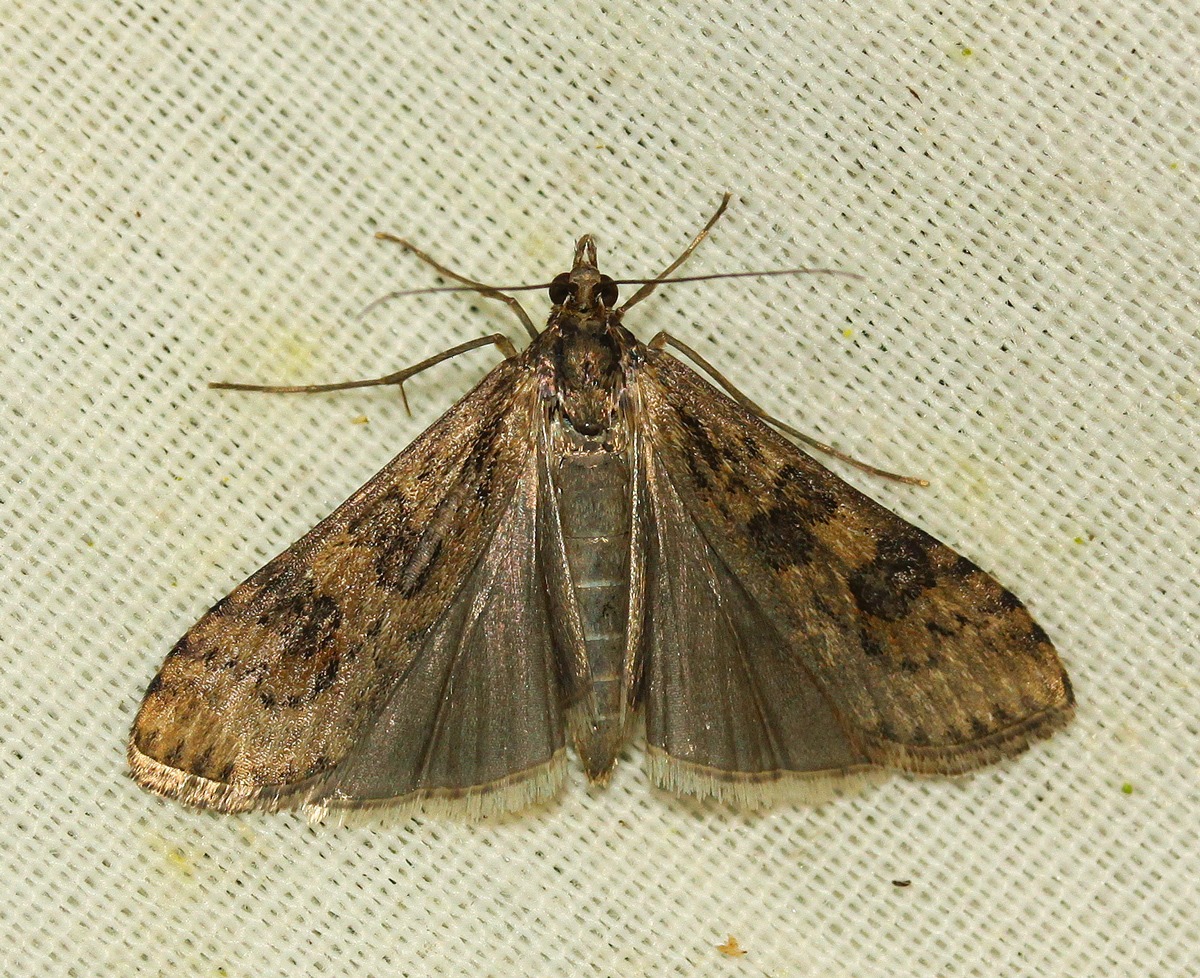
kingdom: Animalia
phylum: Arthropoda
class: Insecta
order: Lepidoptera
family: Crambidae
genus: Nomophila
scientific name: Nomophila noctuella
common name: Vandrehalvmøl
